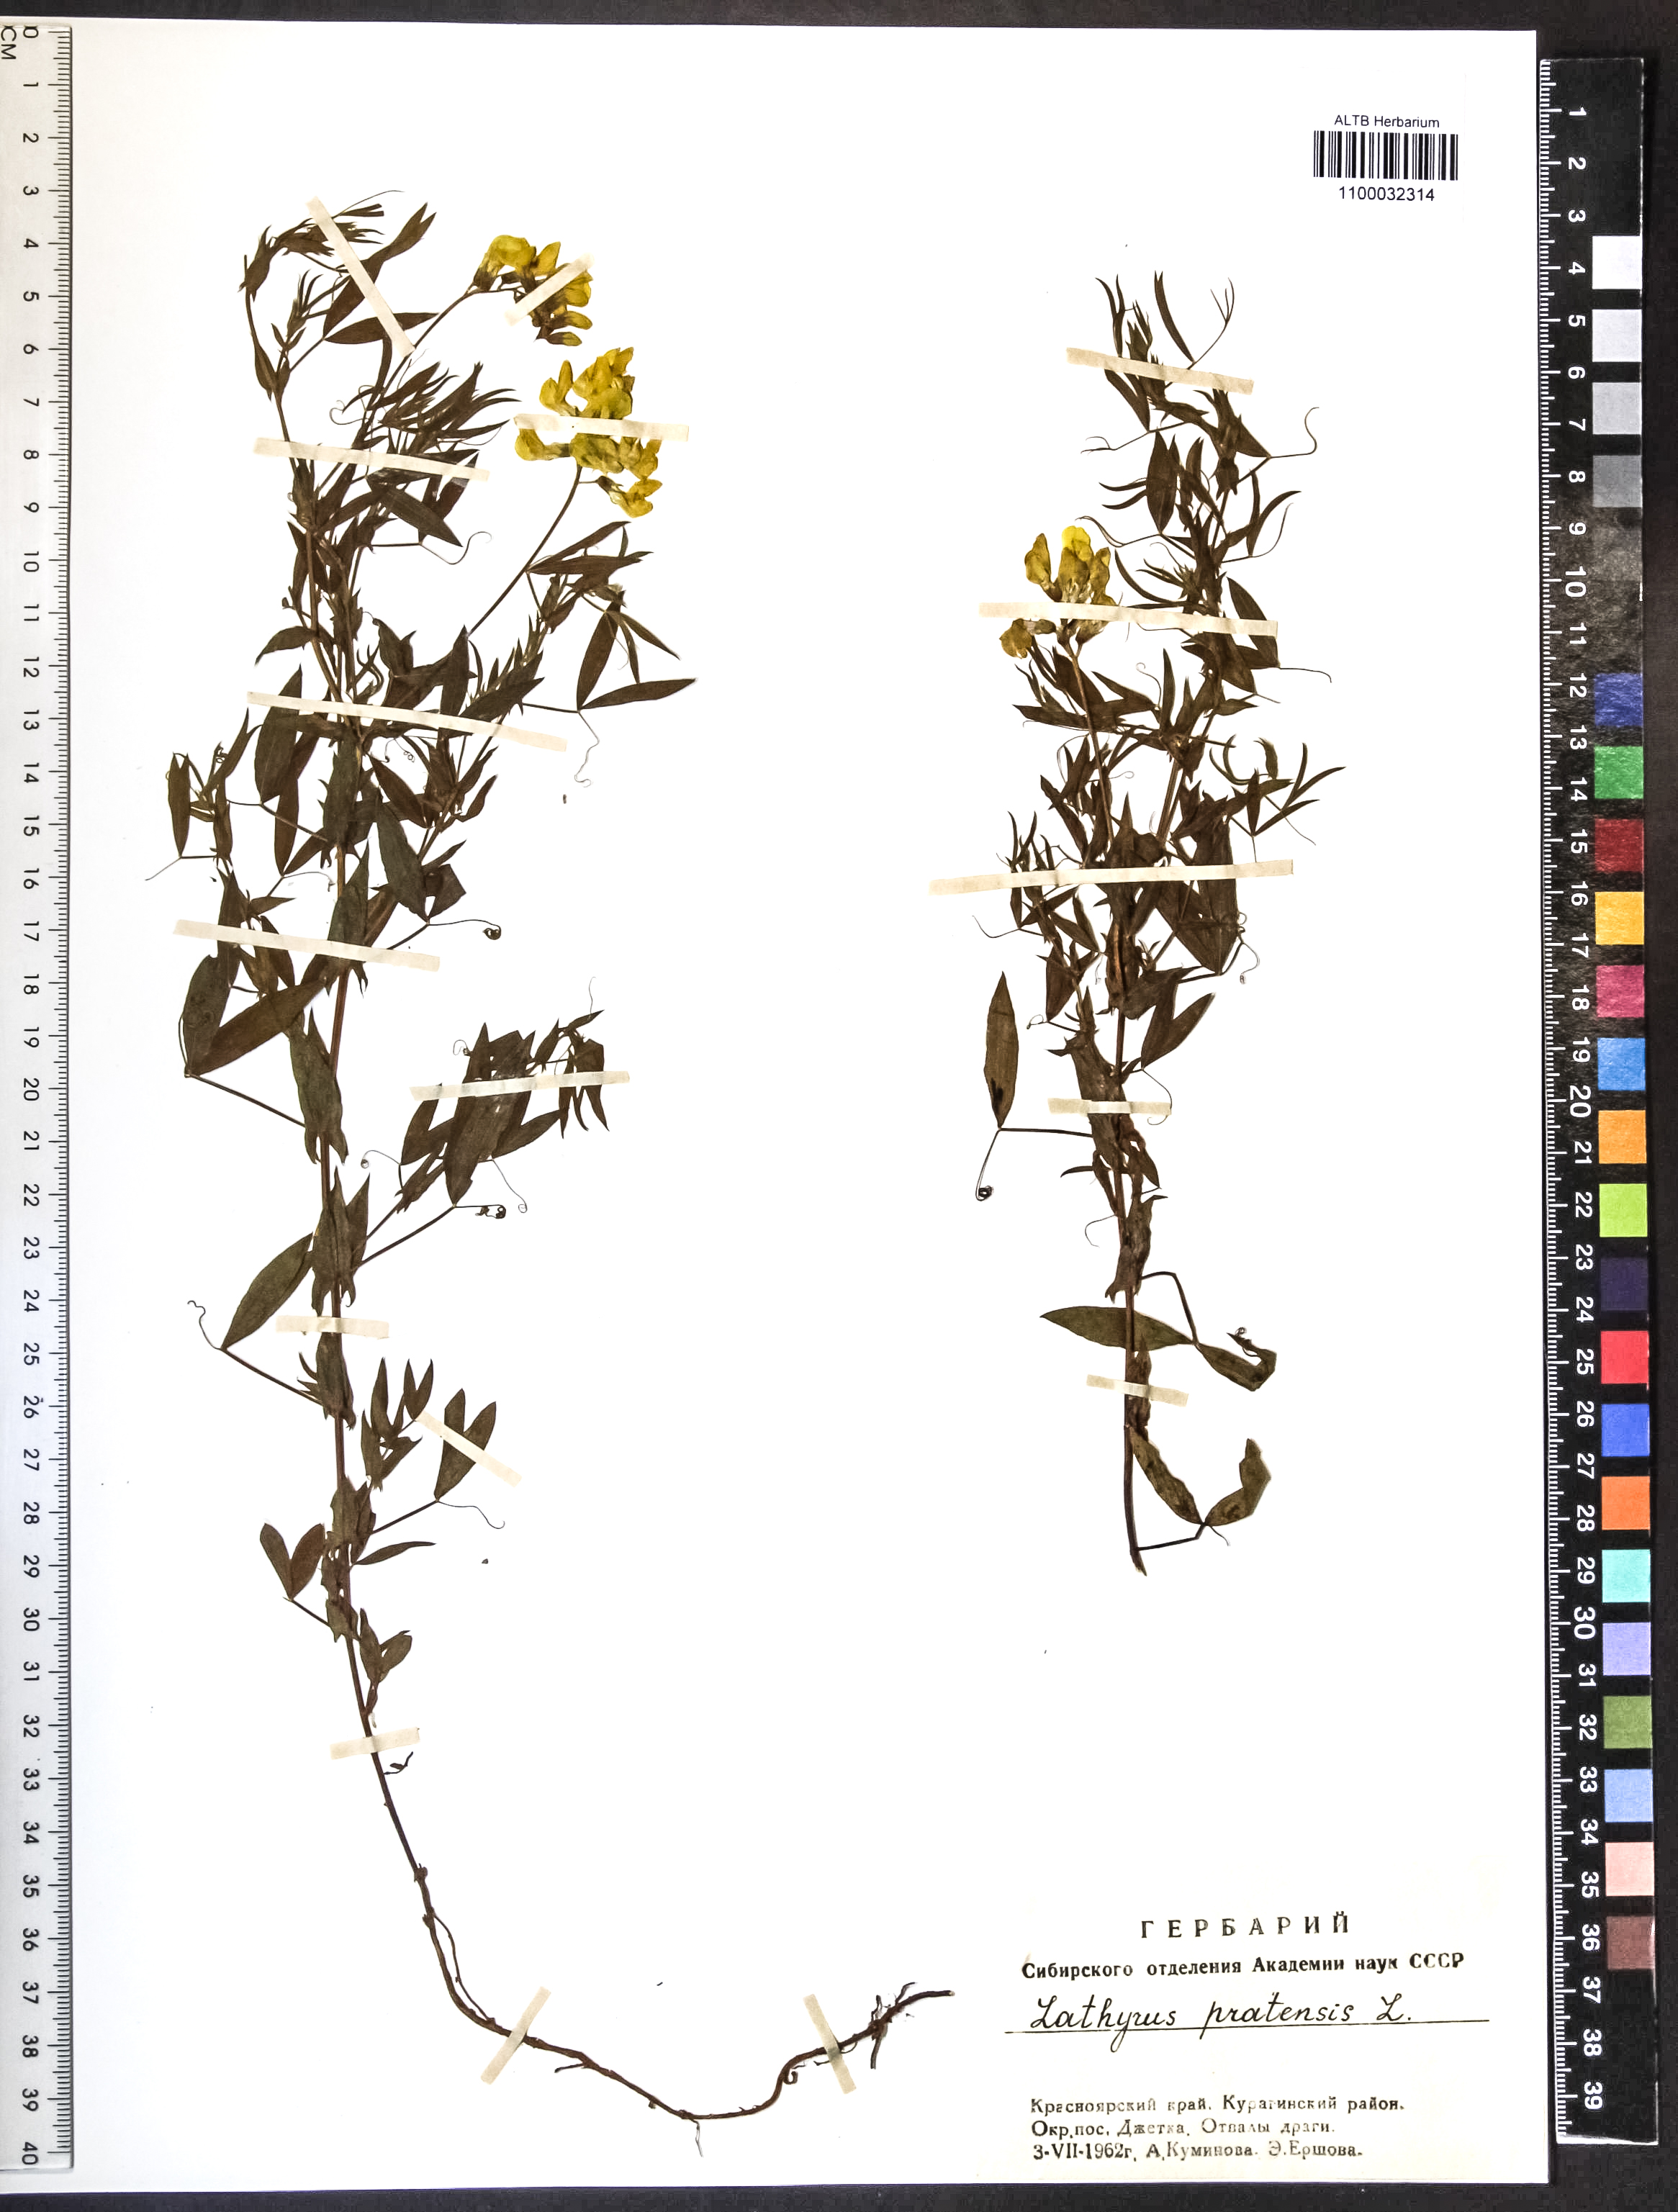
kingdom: Plantae
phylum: Tracheophyta
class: Magnoliopsida
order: Fabales
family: Fabaceae
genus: Lathyrus
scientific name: Lathyrus pratensis
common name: Meadow vetchling
